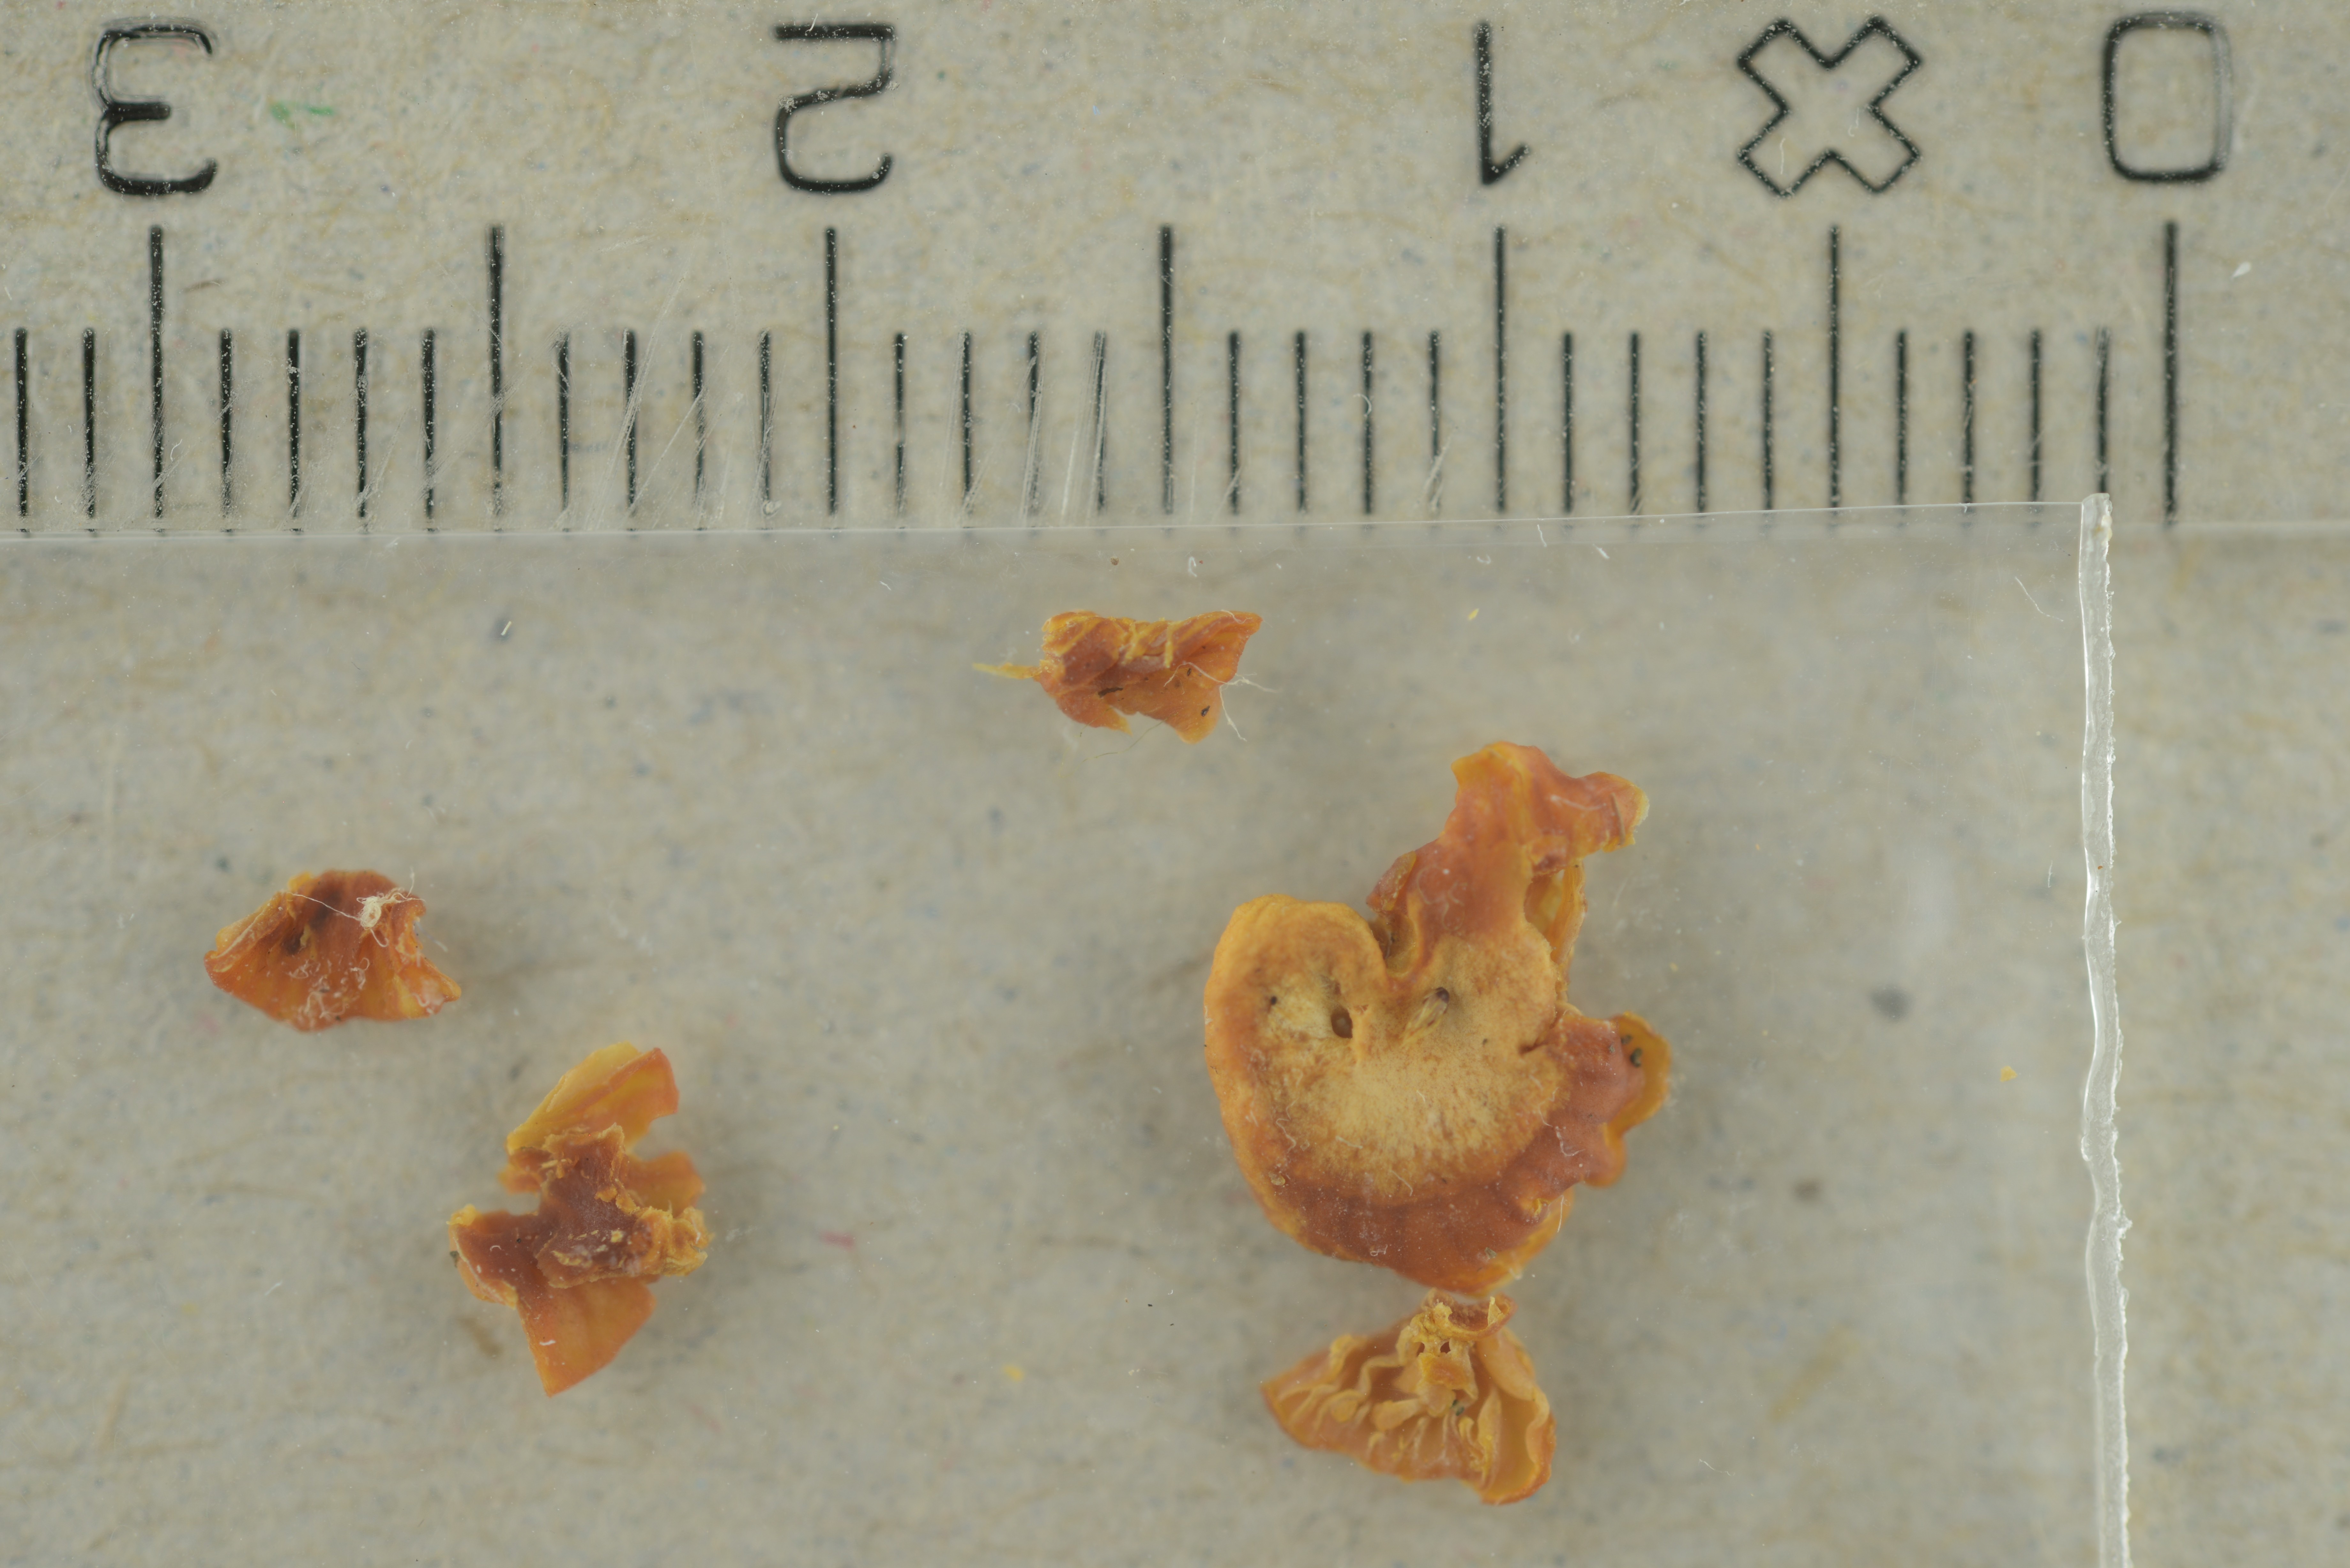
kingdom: Fungi
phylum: Basidiomycota
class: Agaricomycetes
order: Agaricales
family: Hygrophoraceae
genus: Chromosera
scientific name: Chromosera xanthochroa
